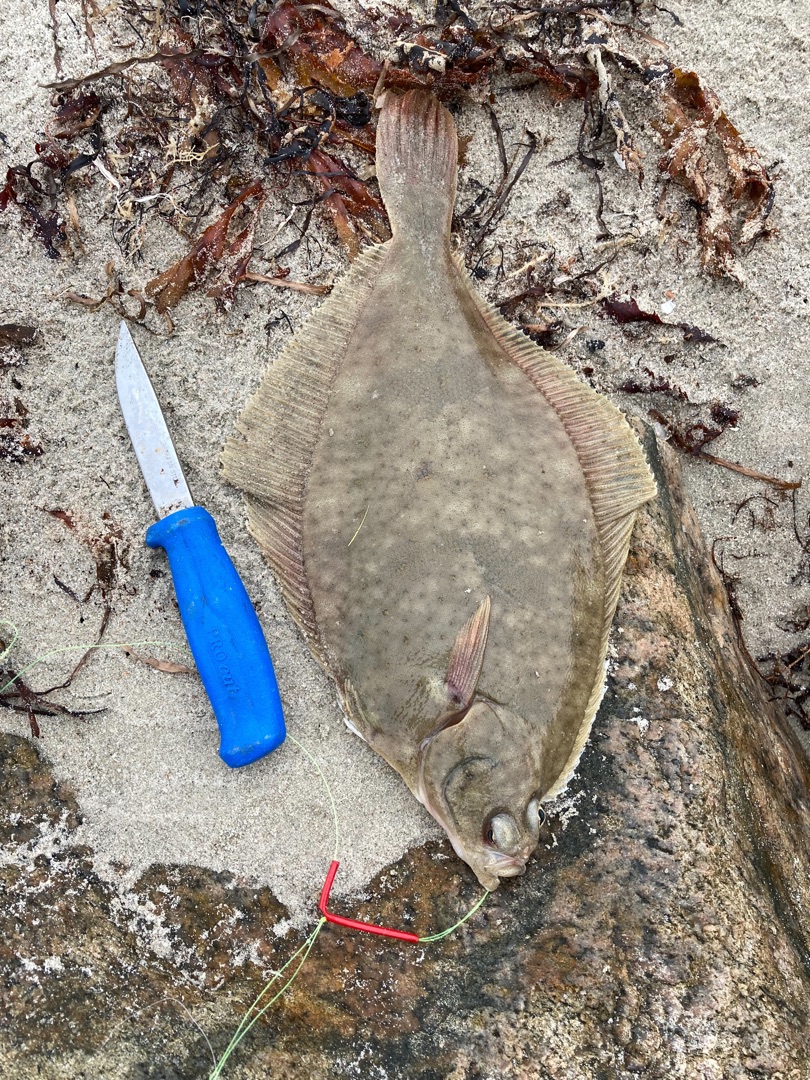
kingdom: Animalia
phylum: Chordata
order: Pleuronectiformes
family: Pleuronectidae
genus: Platichthys
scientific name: Platichthys flesus
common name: Skrubbe
